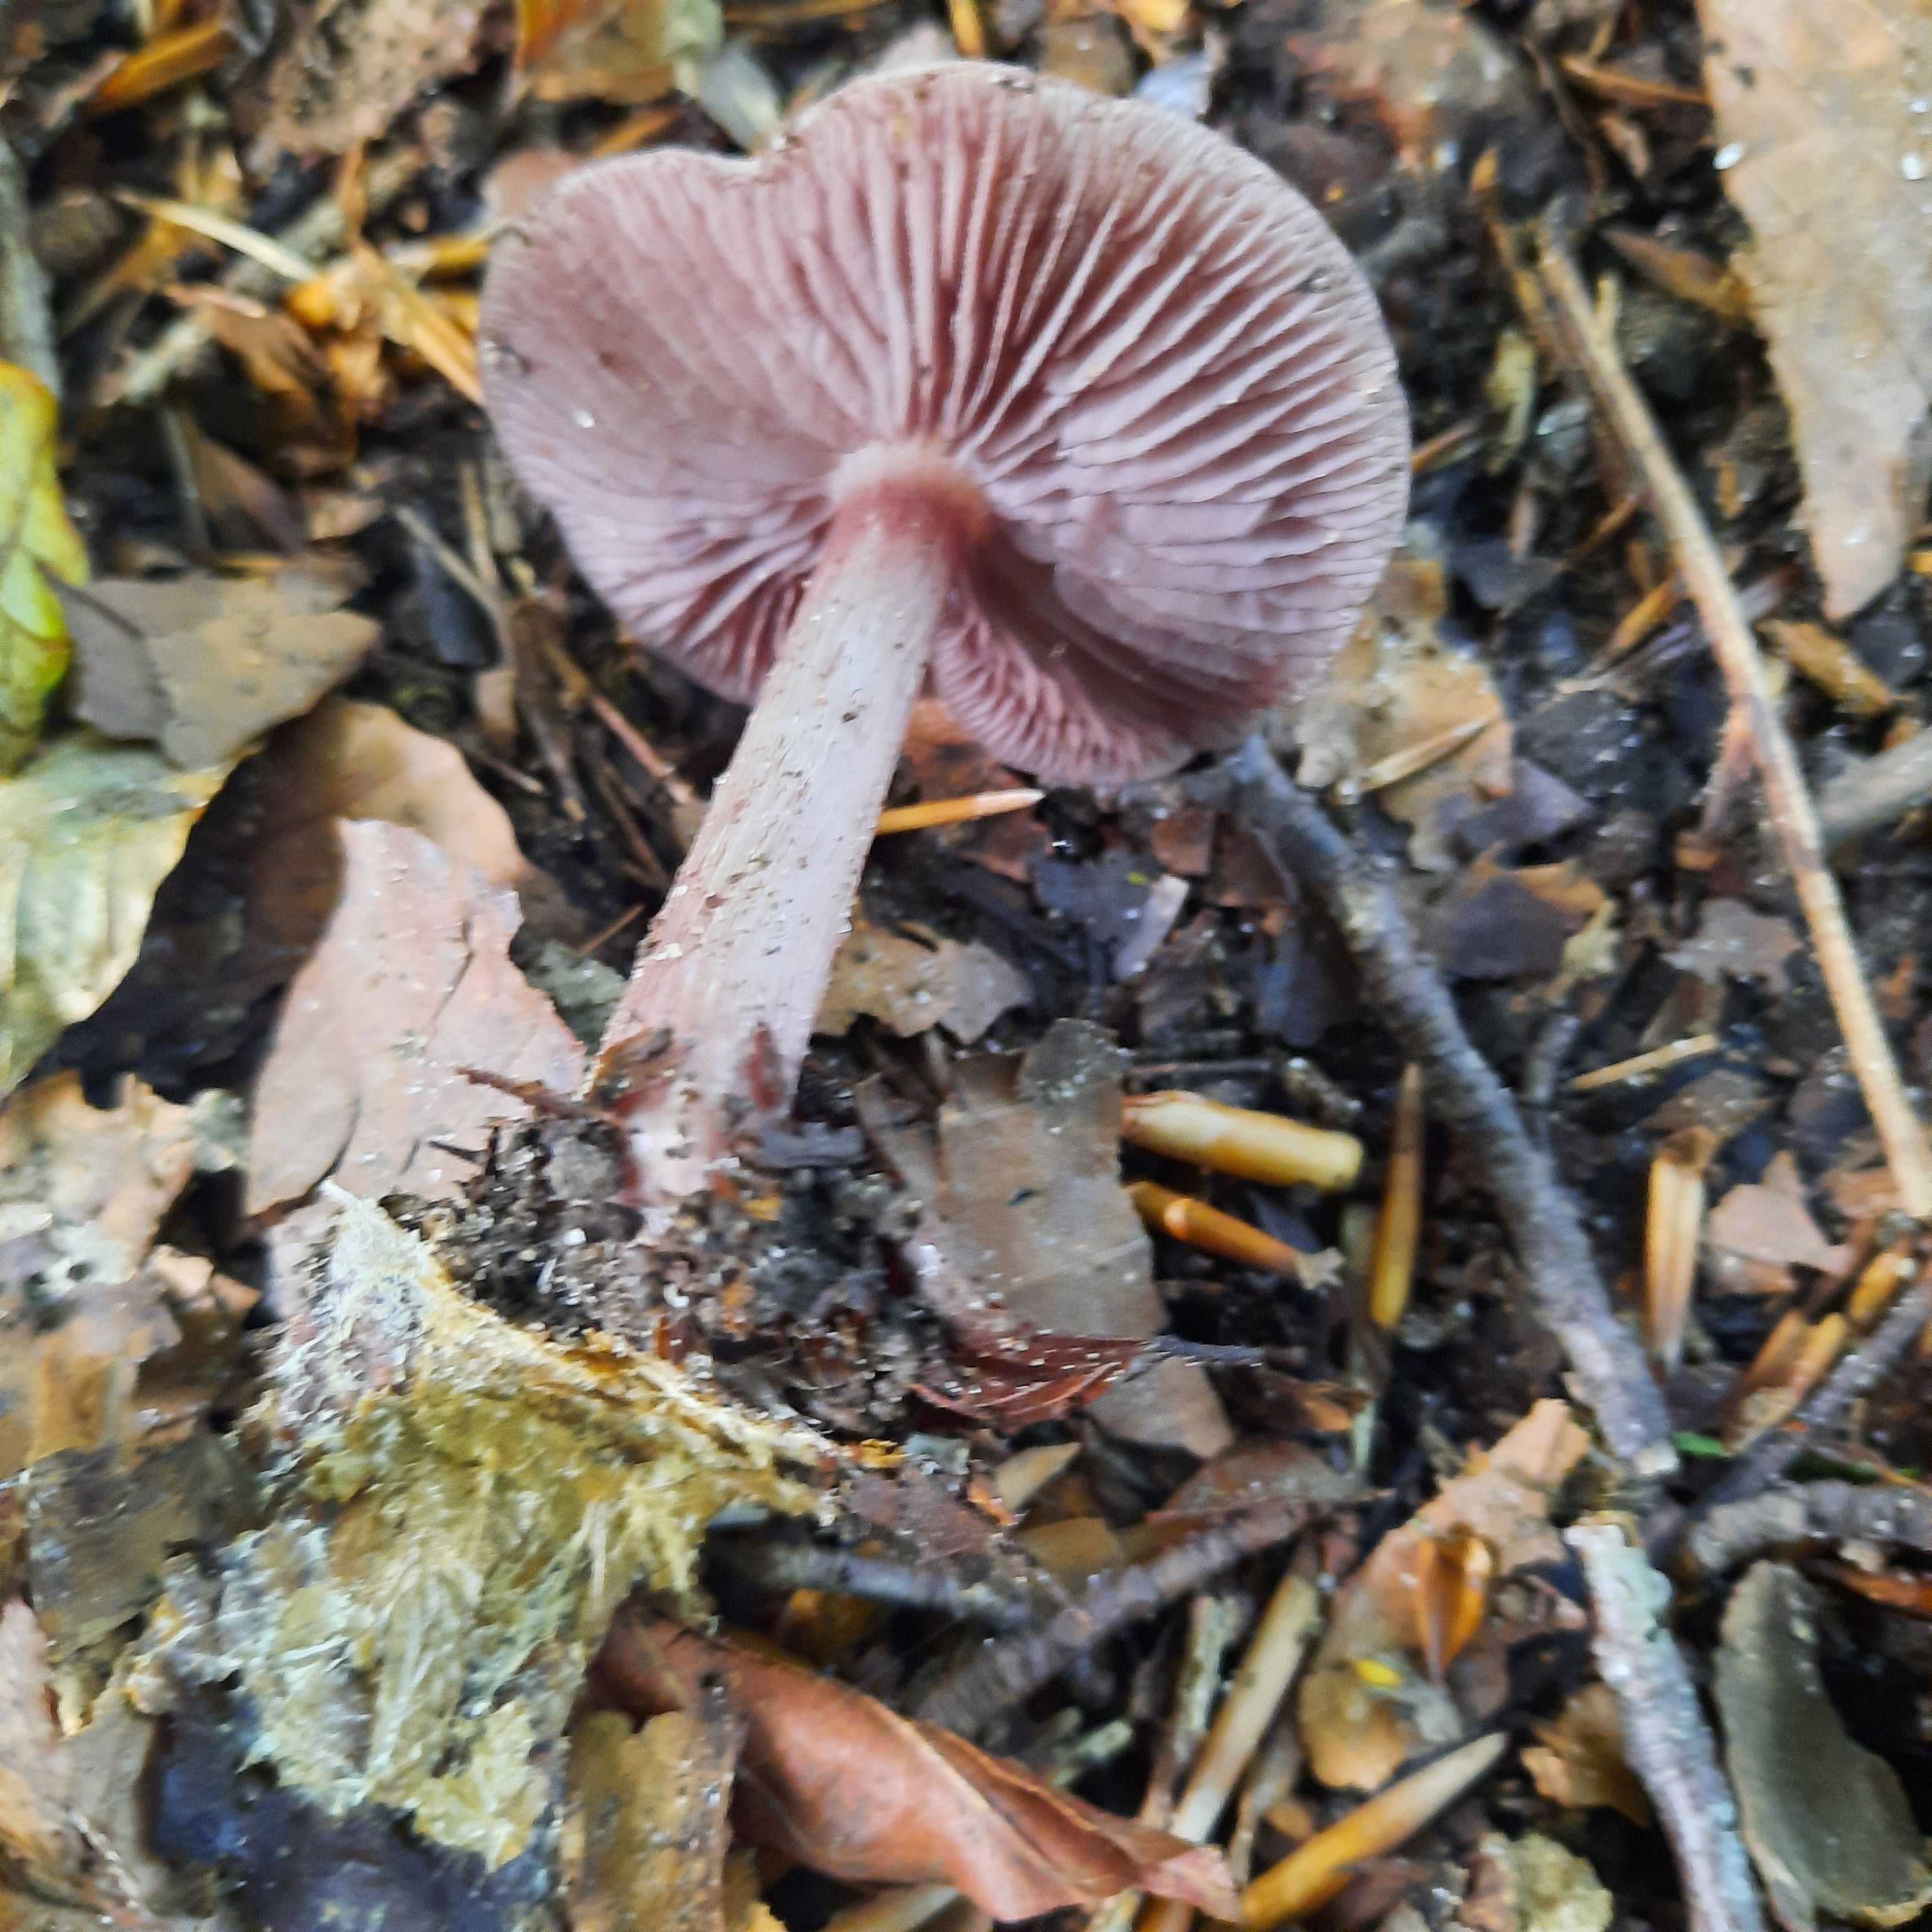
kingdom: Fungi
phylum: Basidiomycota
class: Agaricomycetes
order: Agaricales
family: Mycenaceae
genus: Mycena
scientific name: Mycena pelianthina
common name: mørkbladet huesvamp
